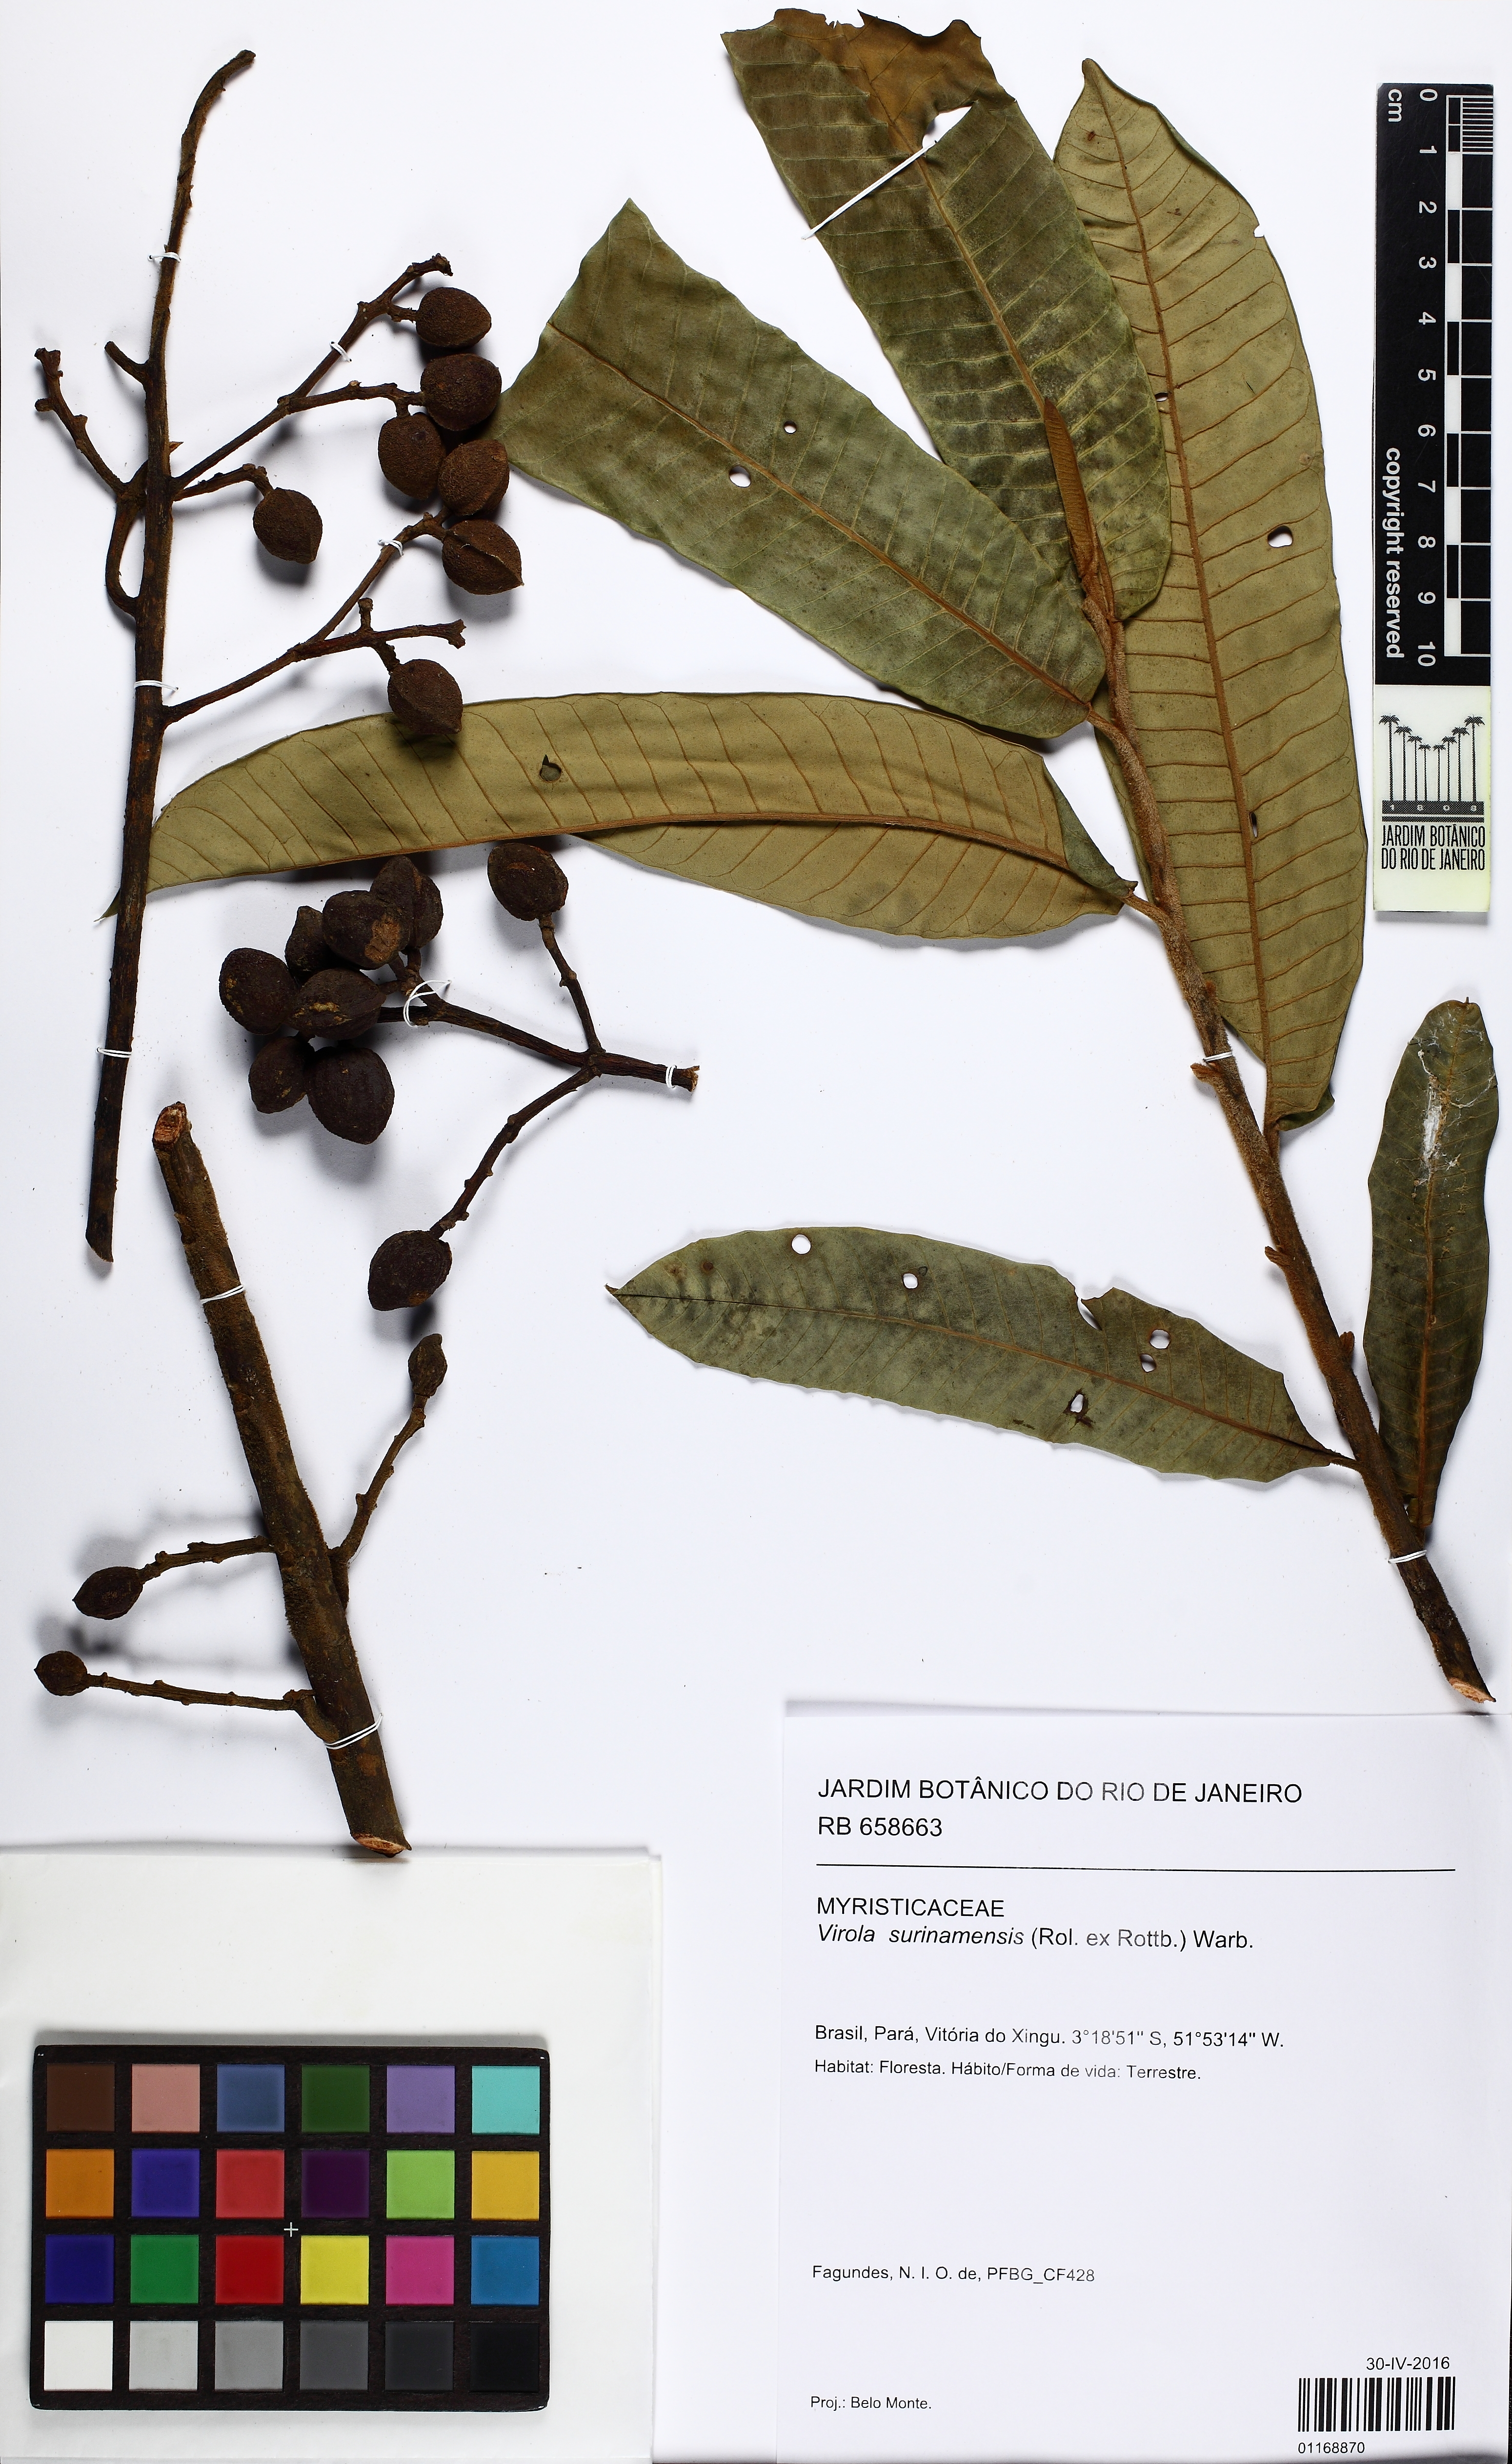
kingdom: Plantae
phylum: Tracheophyta
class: Magnoliopsida
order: Magnoliales
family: Myristicaceae
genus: Virola
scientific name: Virola surinamensis
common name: Baboonwood
